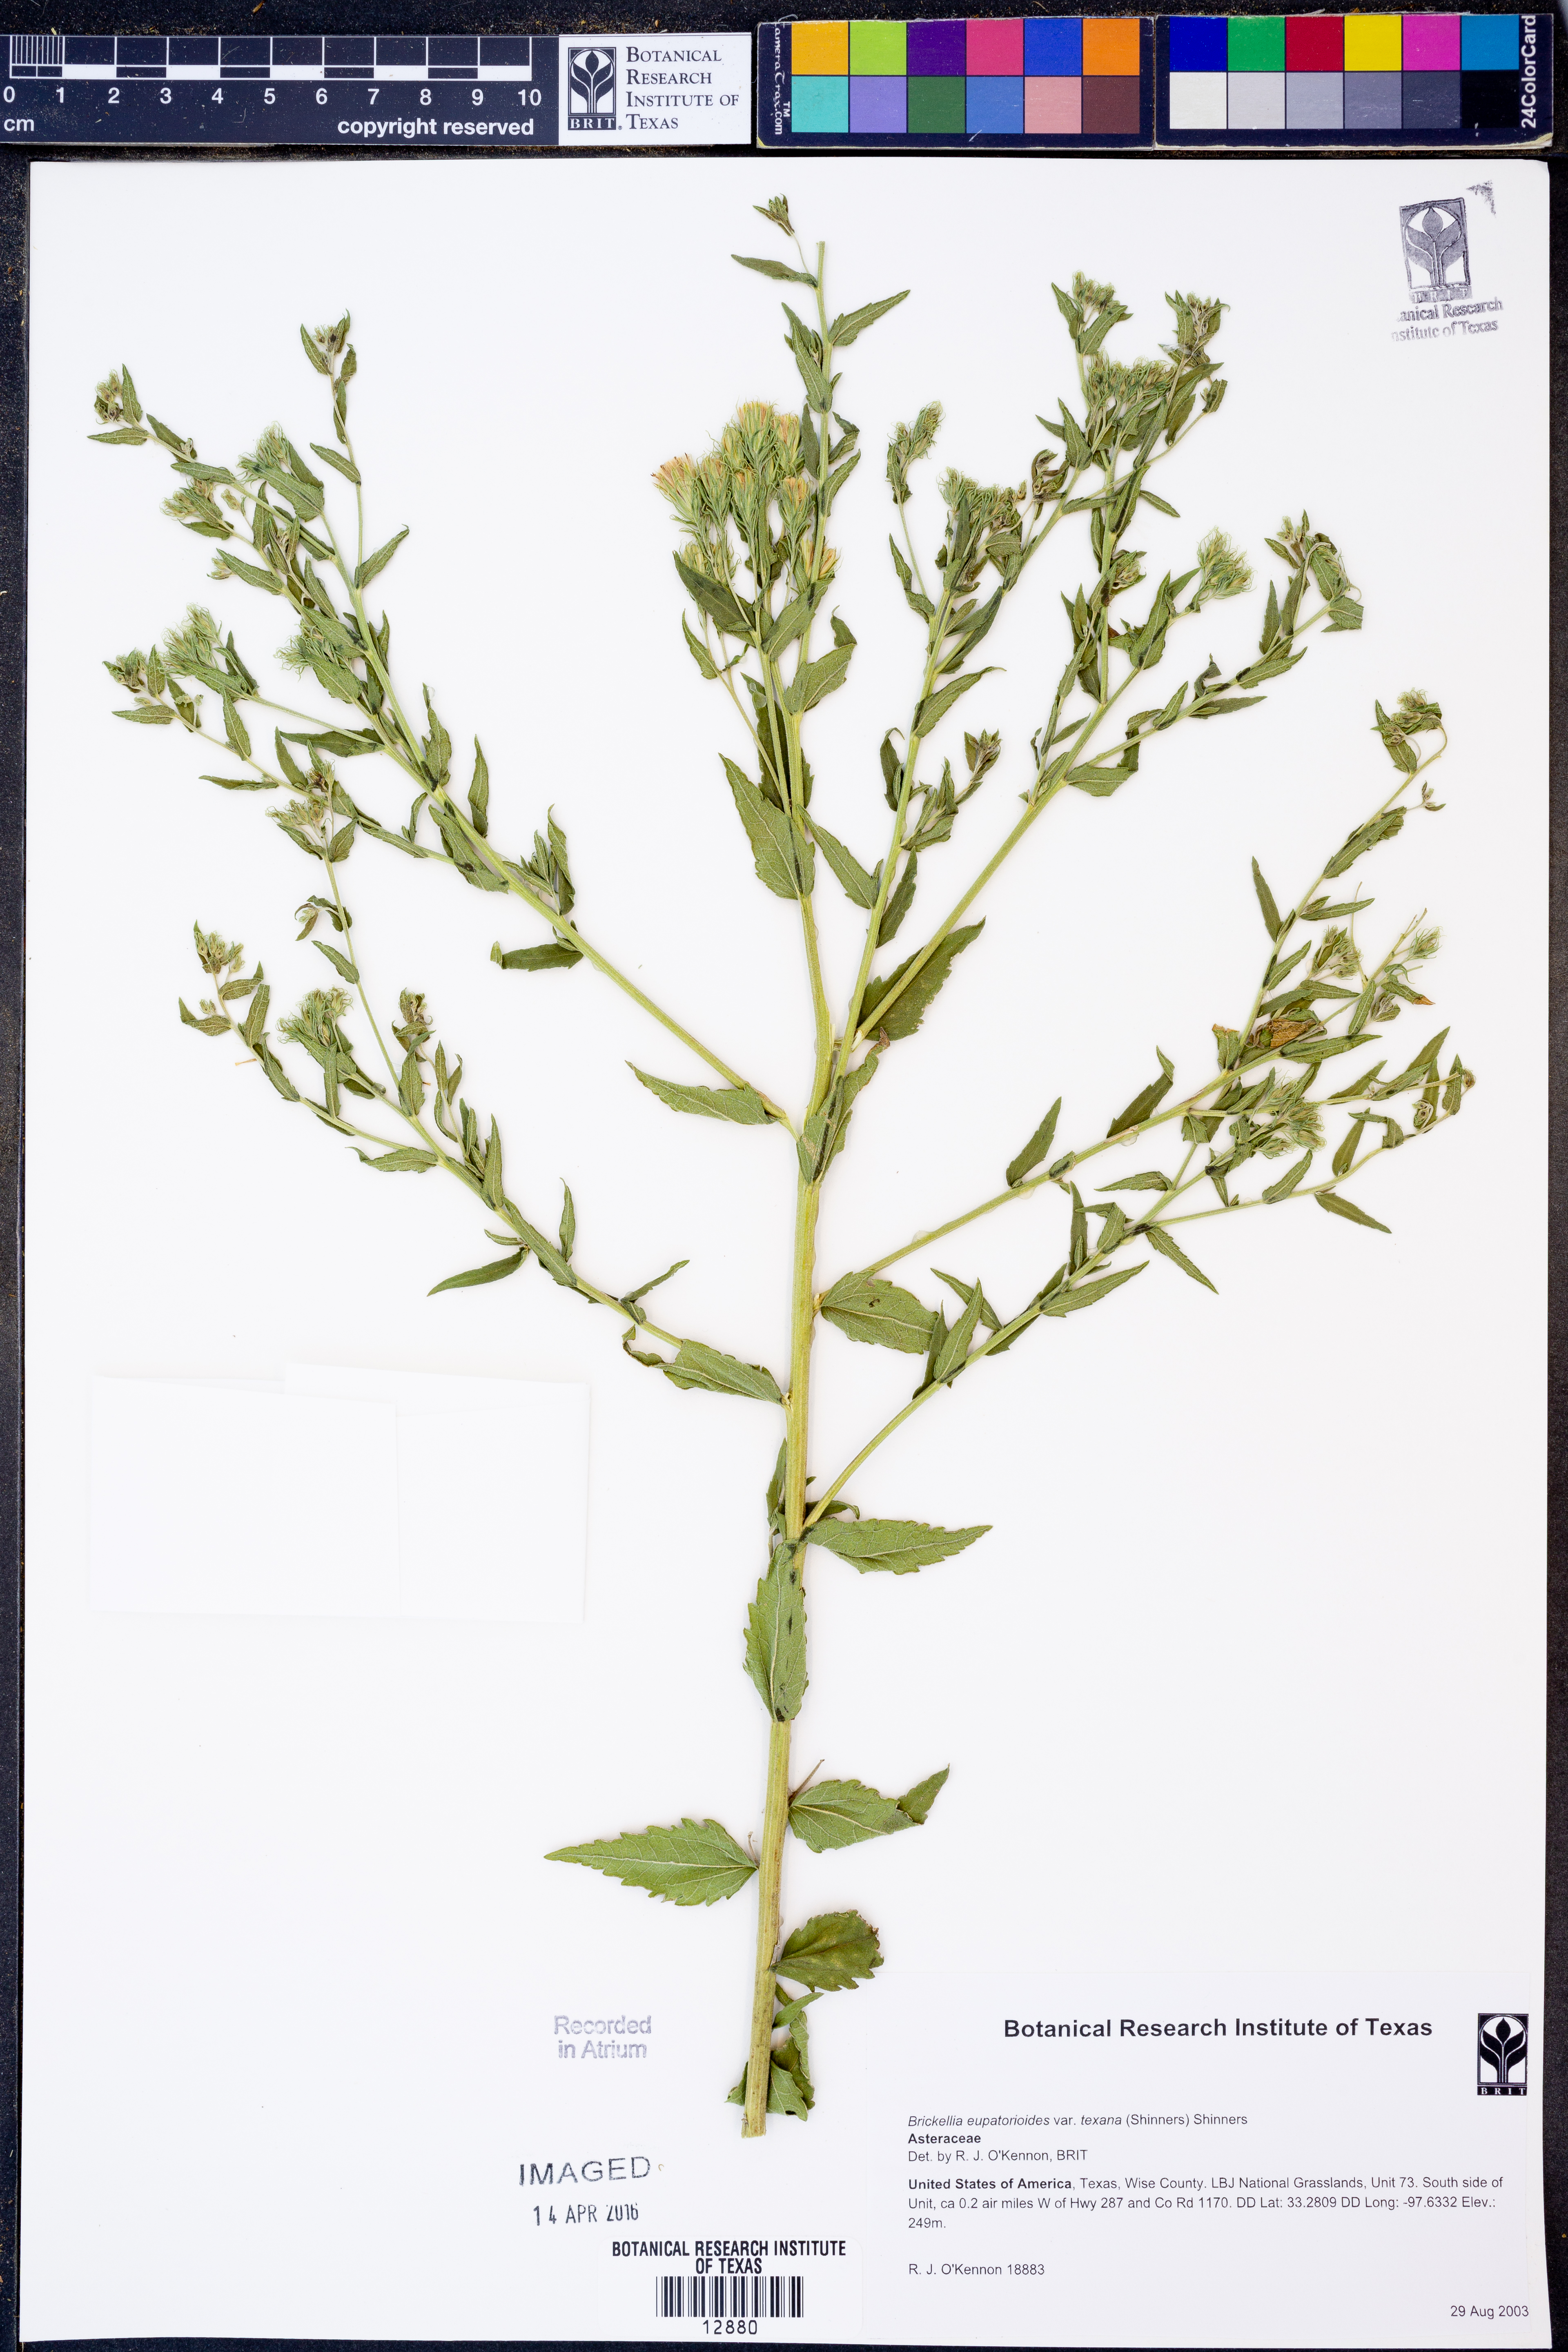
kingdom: Plantae
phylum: Tracheophyta
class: Magnoliopsida
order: Asterales
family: Asteraceae
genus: Brickellia
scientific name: Brickellia macranthra
